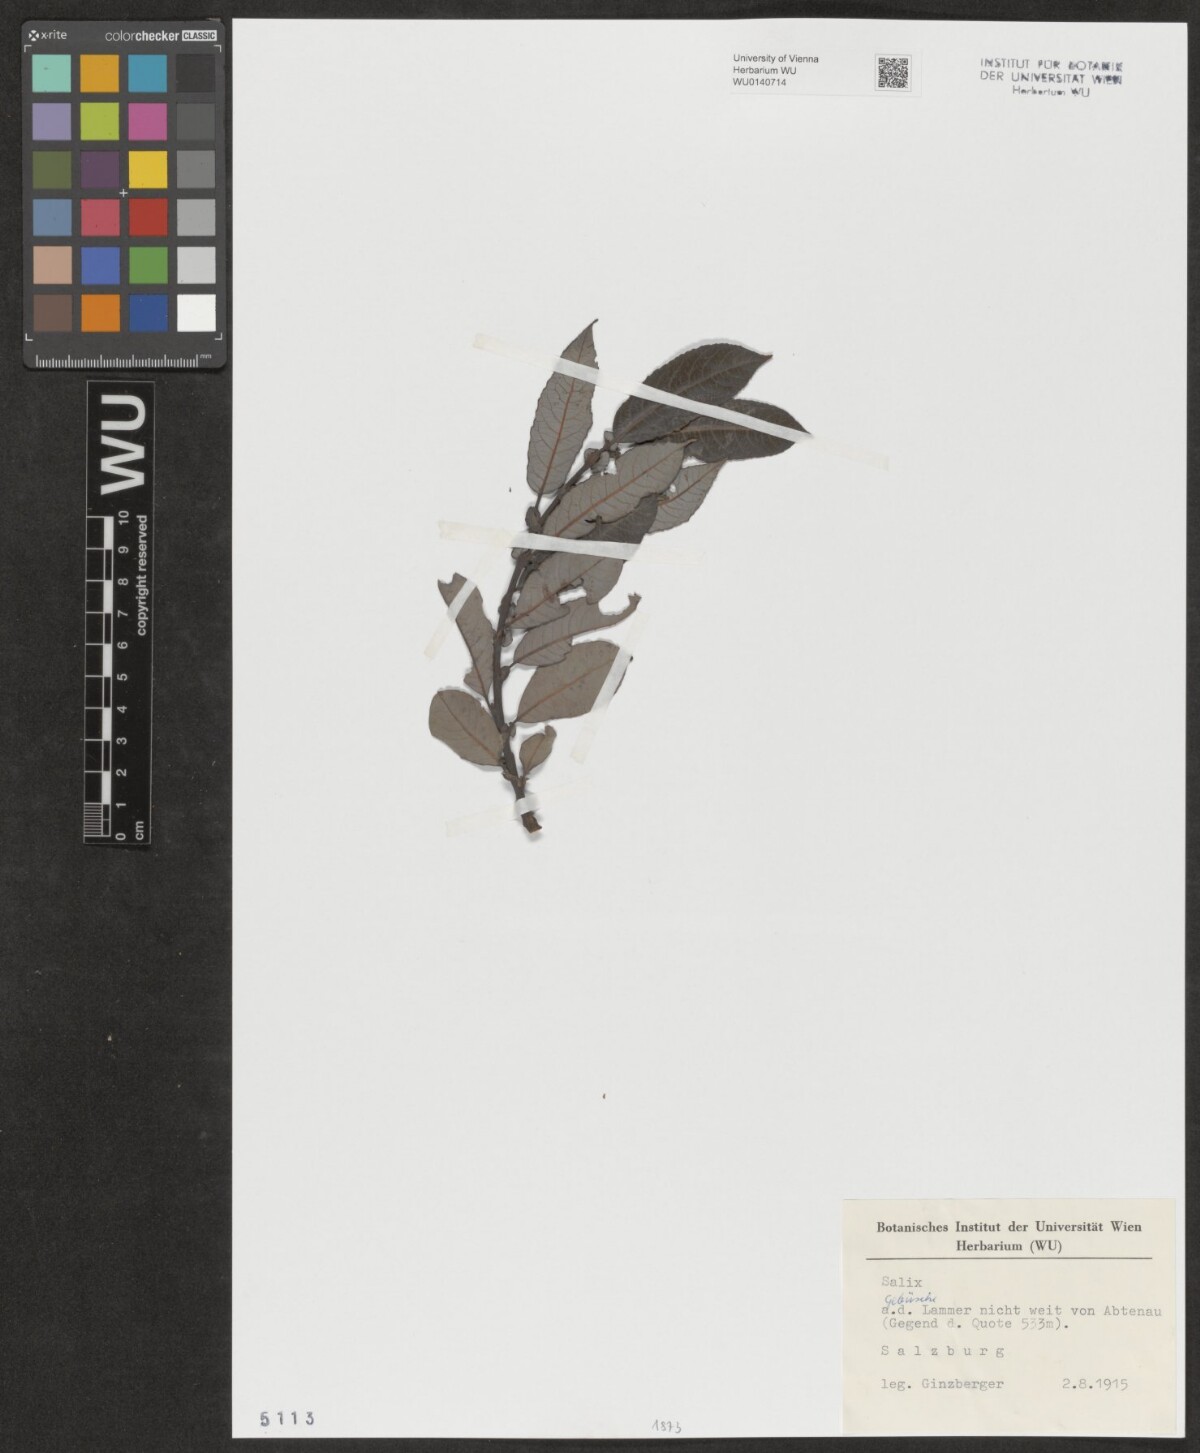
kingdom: Plantae
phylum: Tracheophyta
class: Magnoliopsida
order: Malpighiales
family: Salicaceae
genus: Salix
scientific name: Salix
